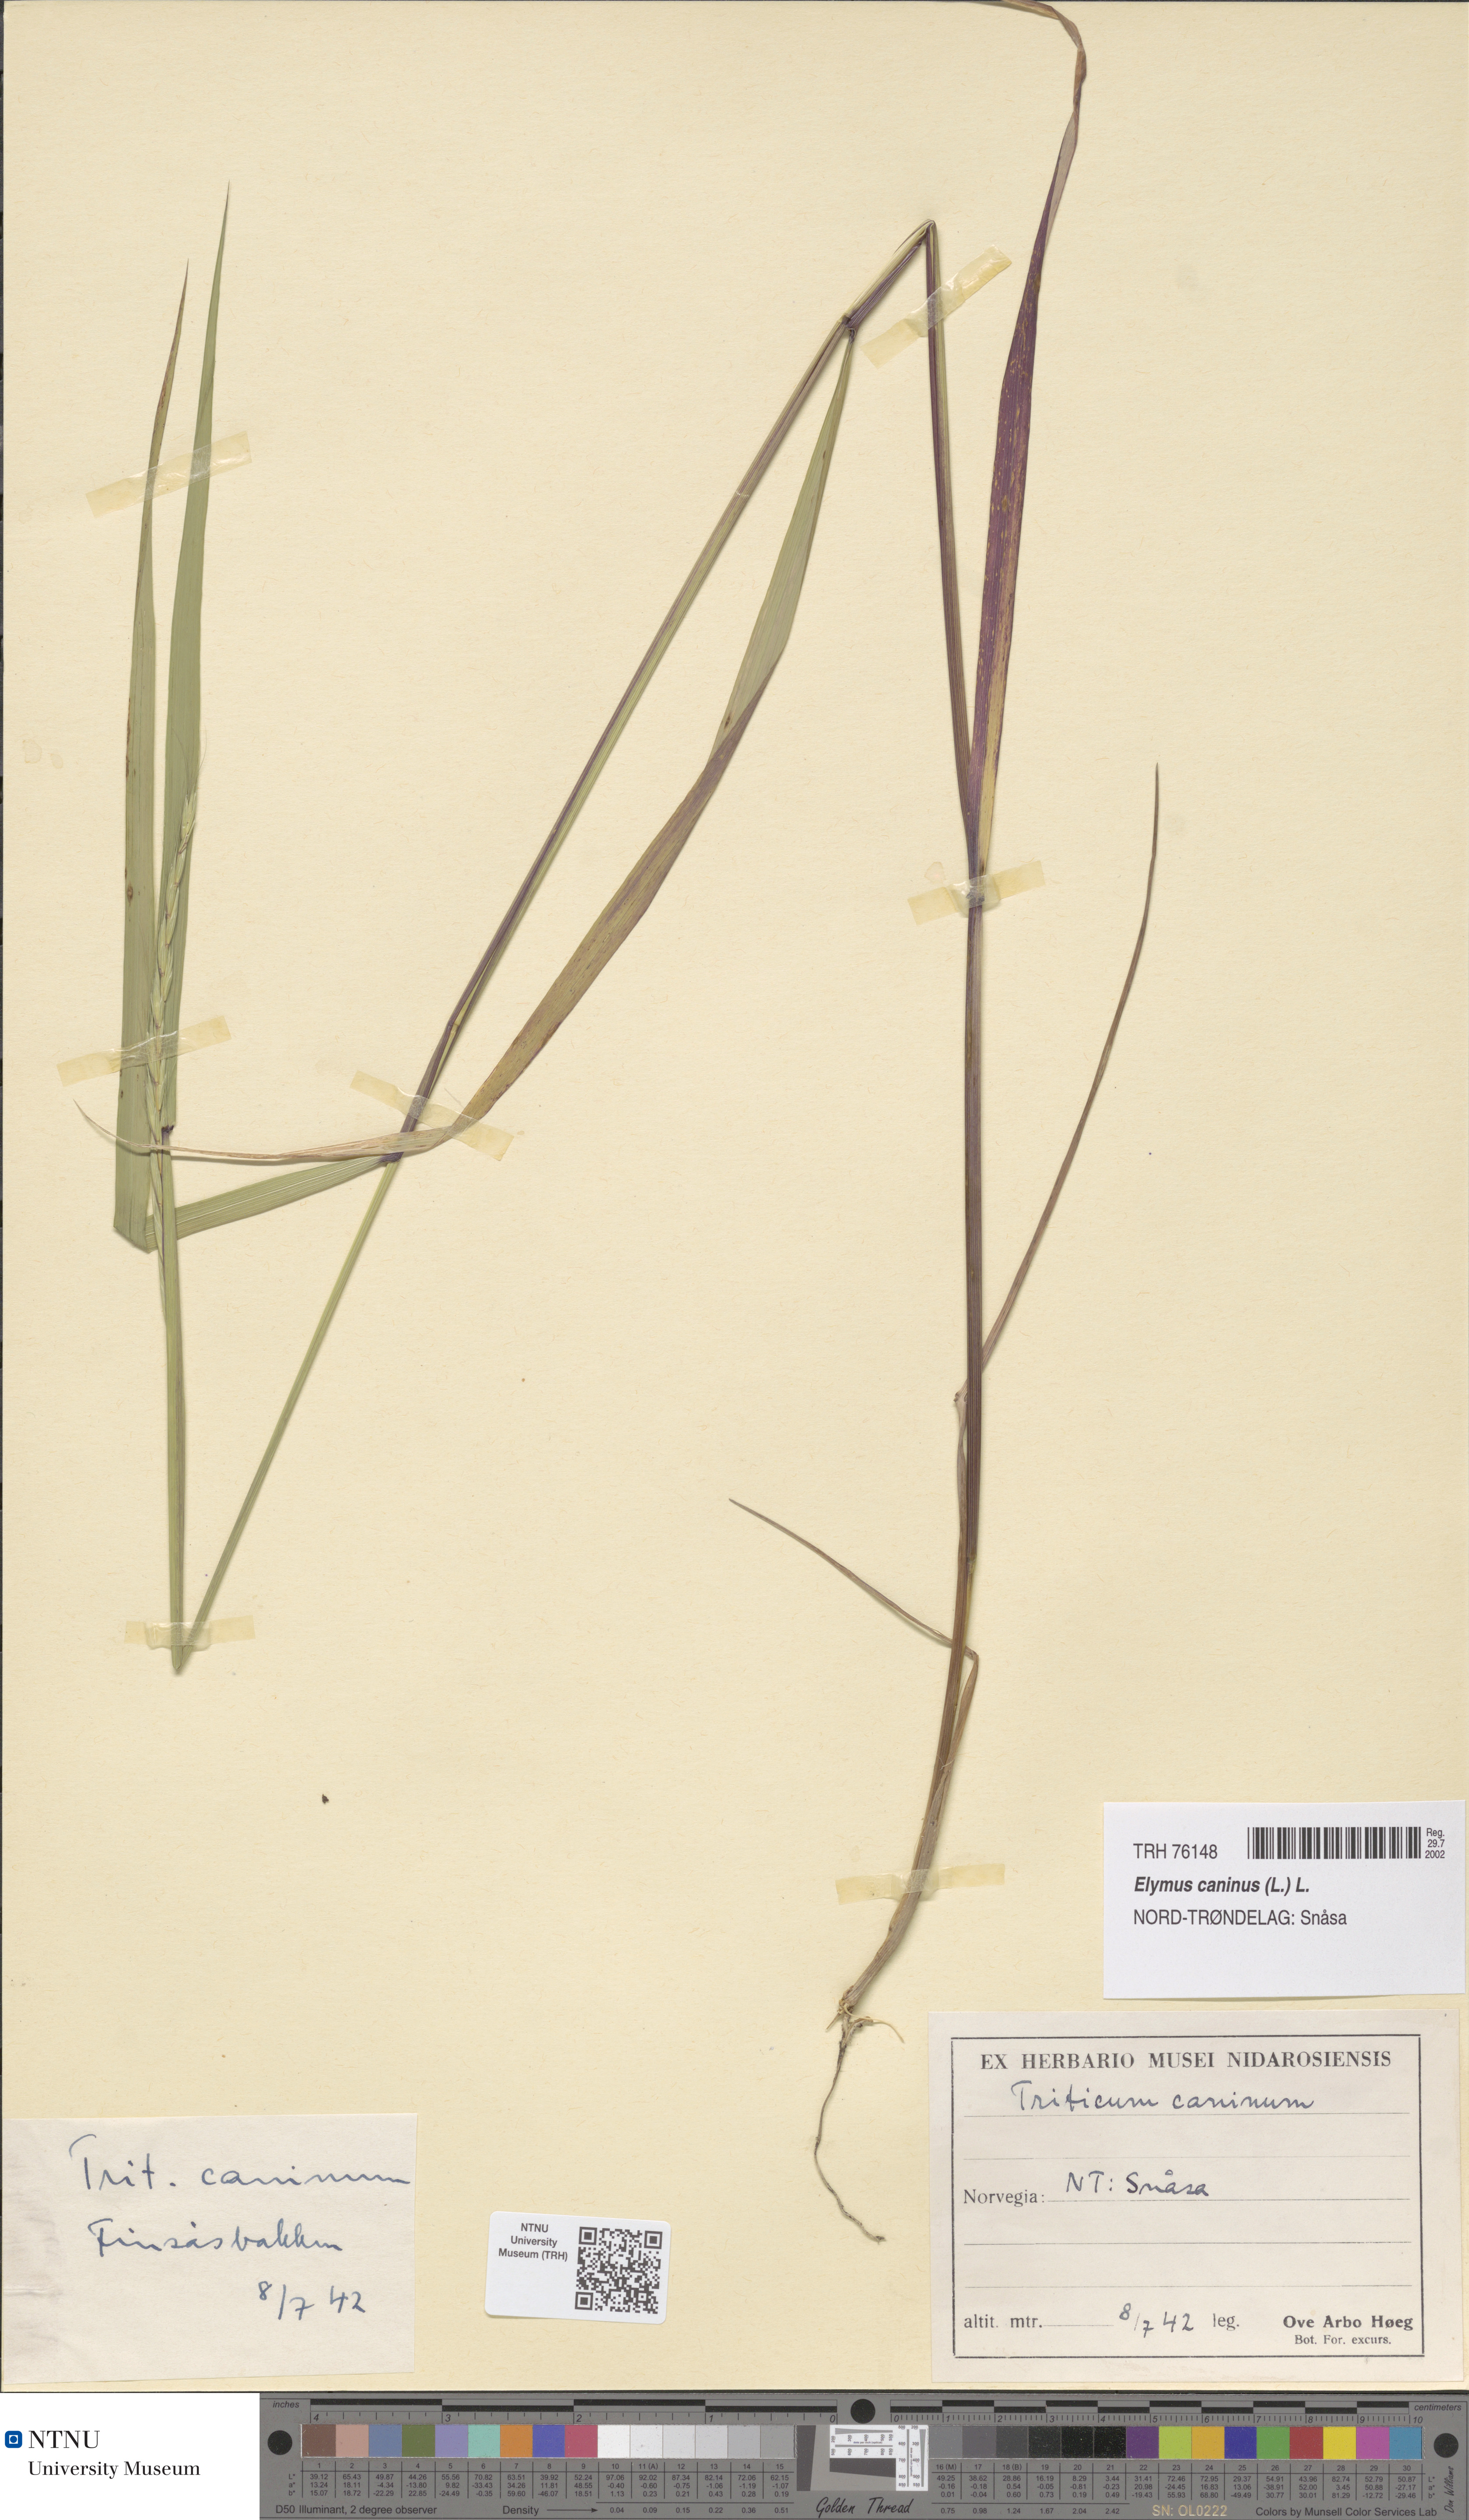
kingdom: Plantae
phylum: Tracheophyta
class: Liliopsida
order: Poales
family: Poaceae
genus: Elymus
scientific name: Elymus caninus
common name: Bearded couch
